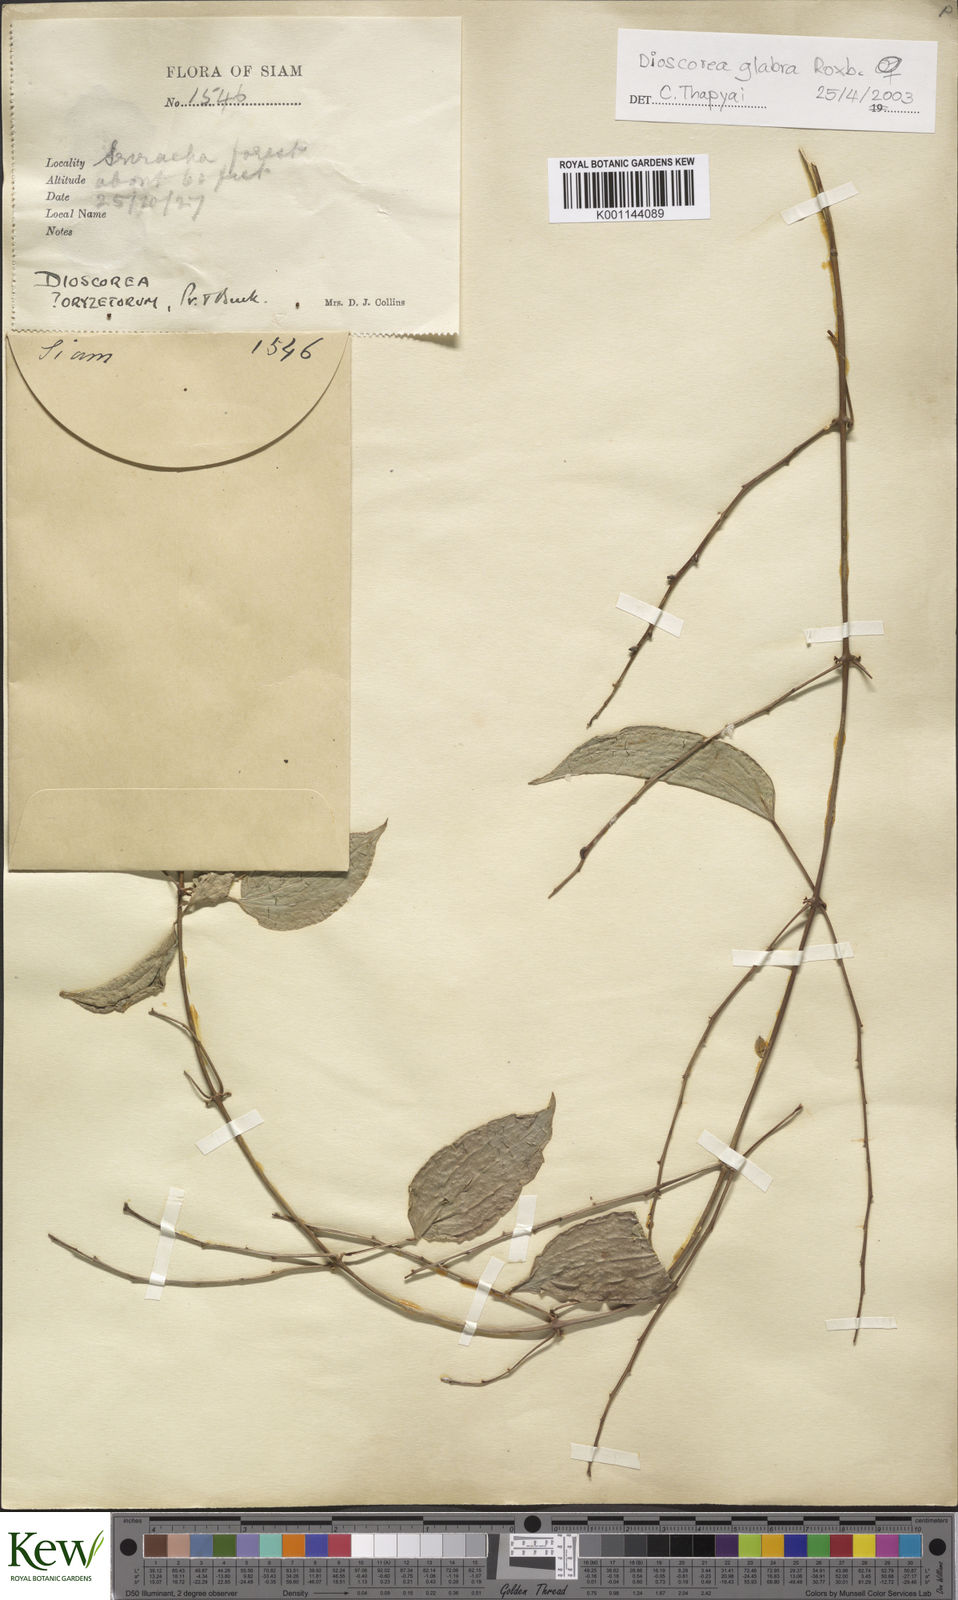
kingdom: Plantae
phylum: Tracheophyta
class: Liliopsida
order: Dioscoreales
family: Dioscoreaceae
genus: Dioscorea
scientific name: Dioscorea glabra
